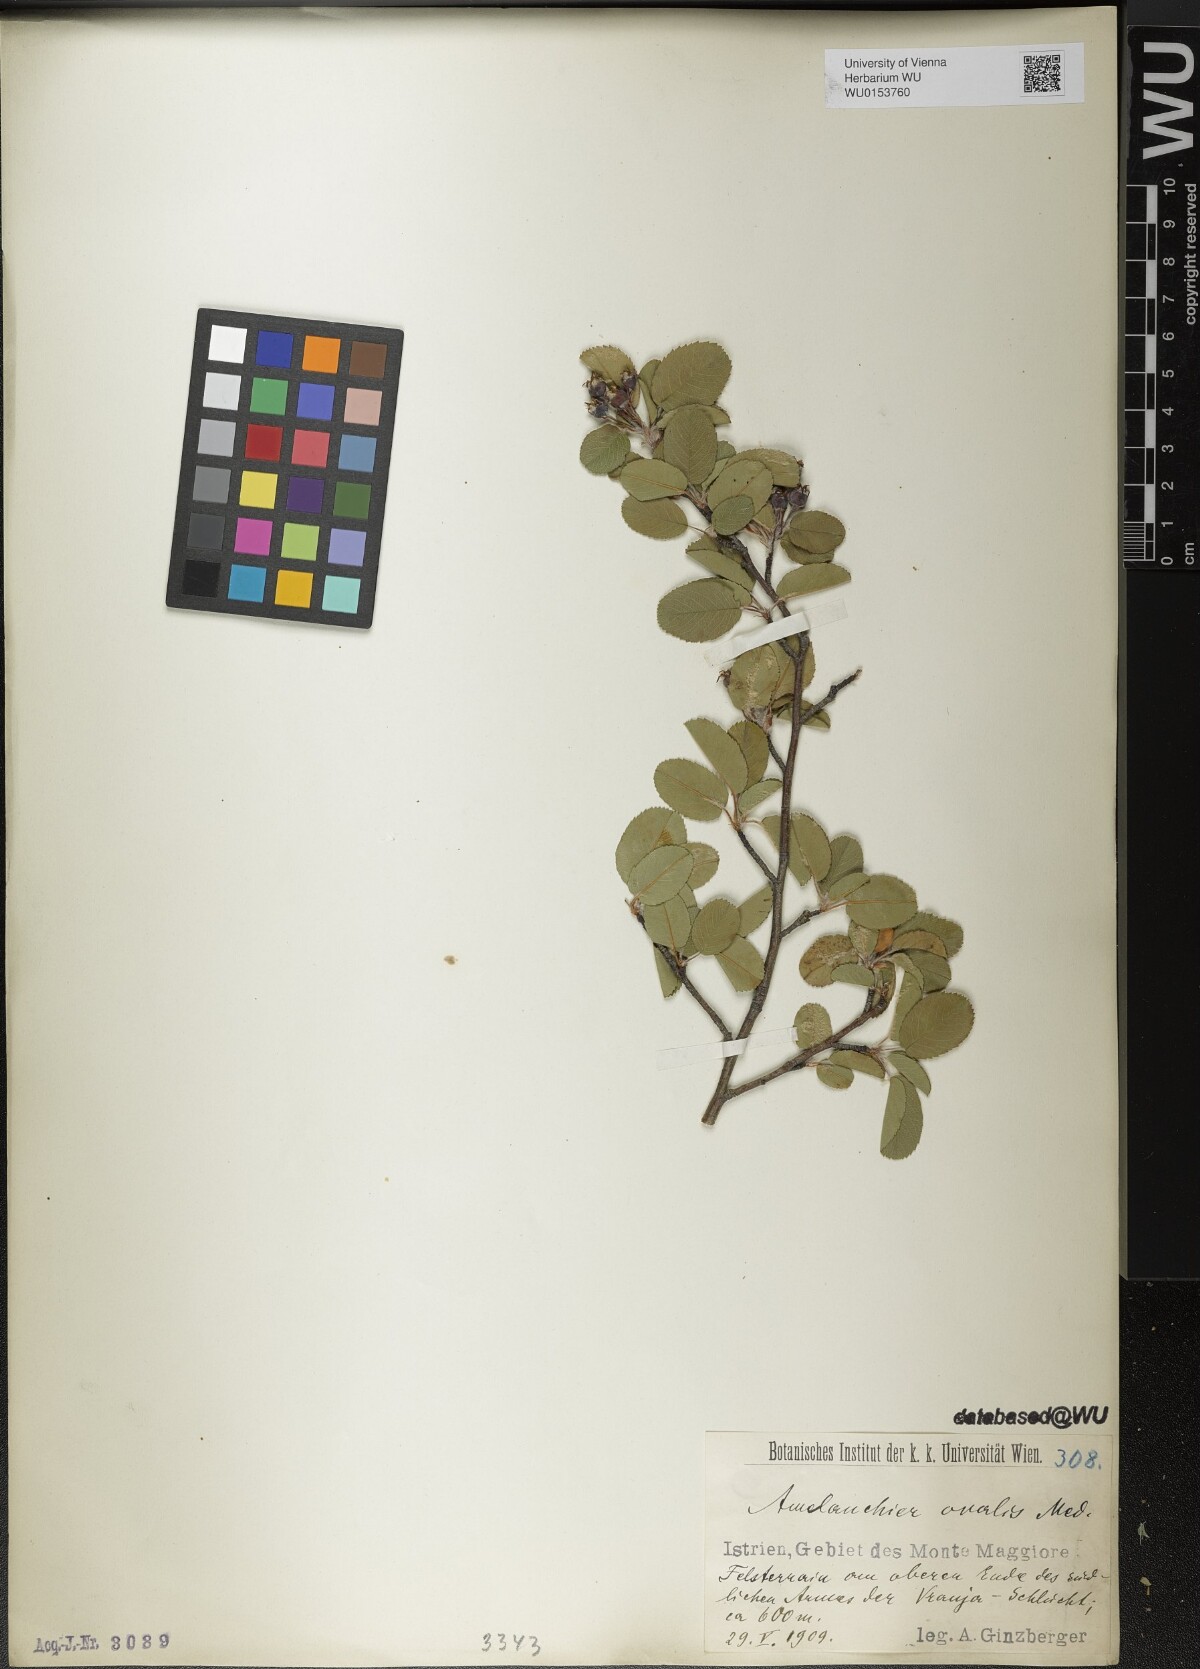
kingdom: Plantae
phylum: Tracheophyta
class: Magnoliopsida
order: Rosales
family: Rosaceae
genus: Amelanchier
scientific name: Amelanchier ovalis
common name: Serviceberry
